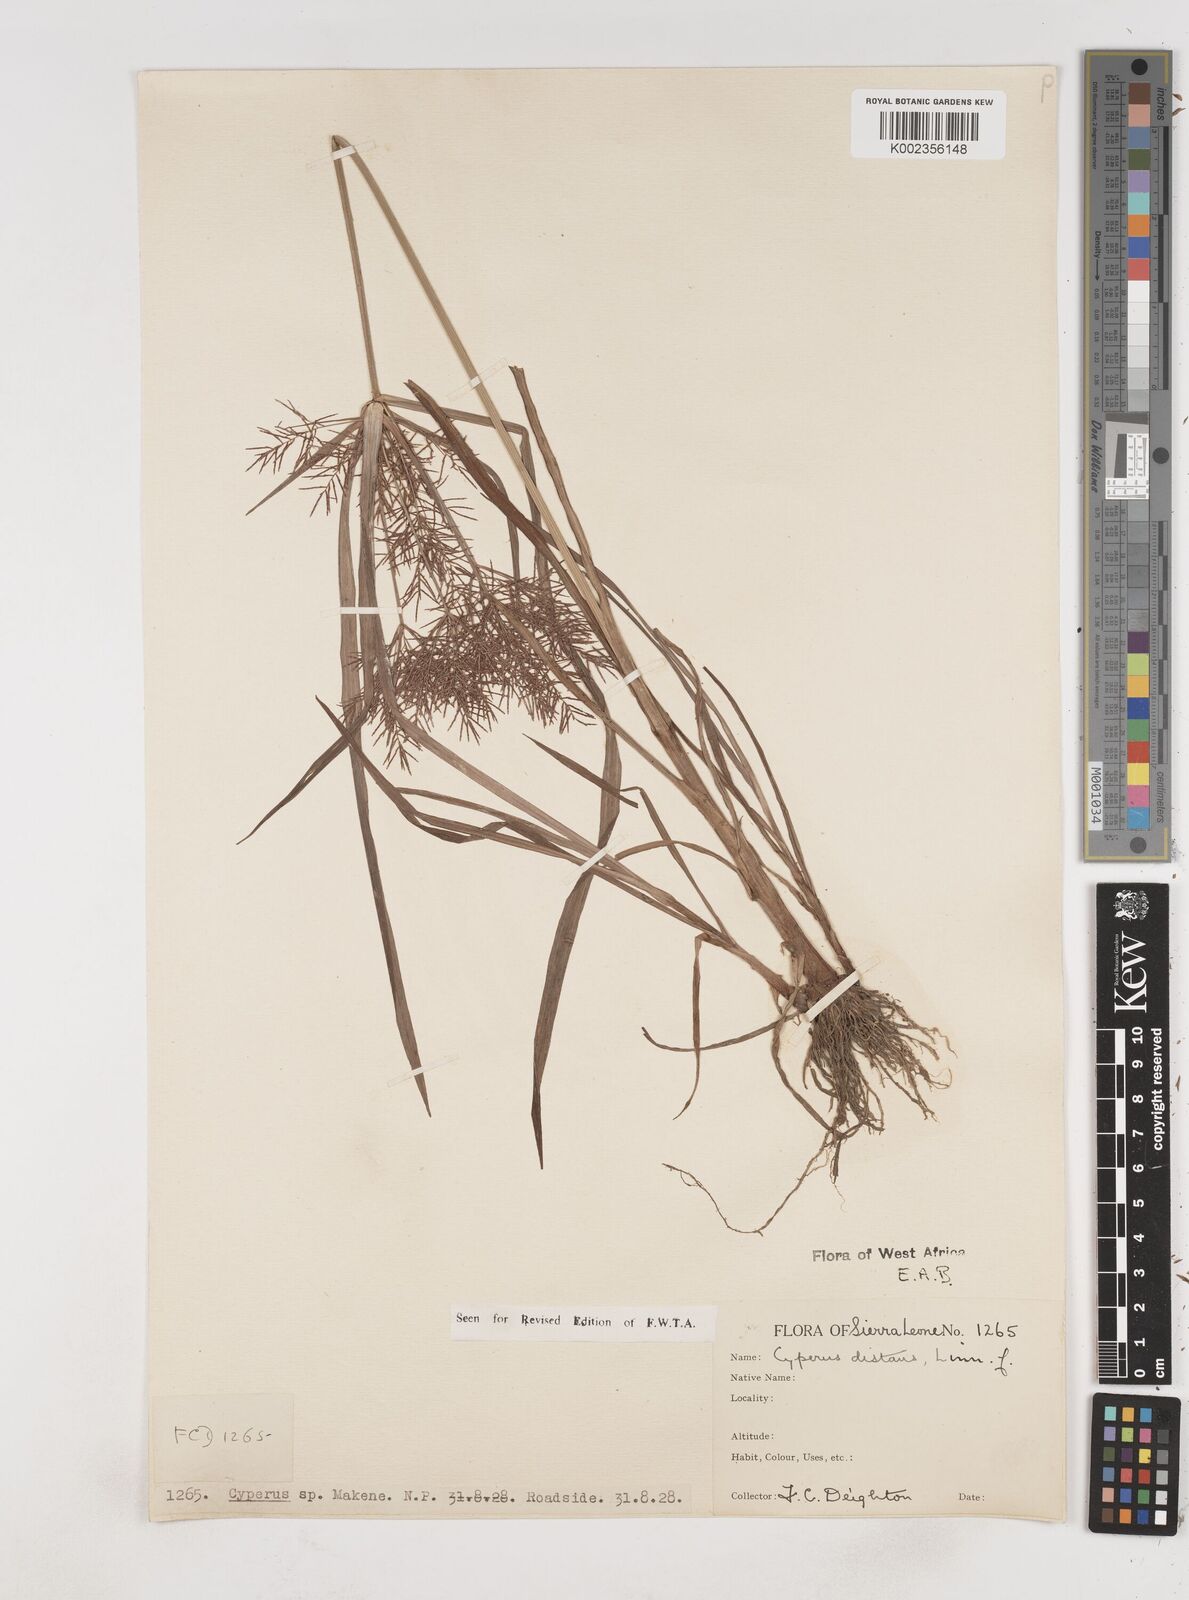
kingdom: Plantae
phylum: Tracheophyta
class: Liliopsida
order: Poales
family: Cyperaceae
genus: Cyperus
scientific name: Cyperus distans
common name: Slender cyperus
